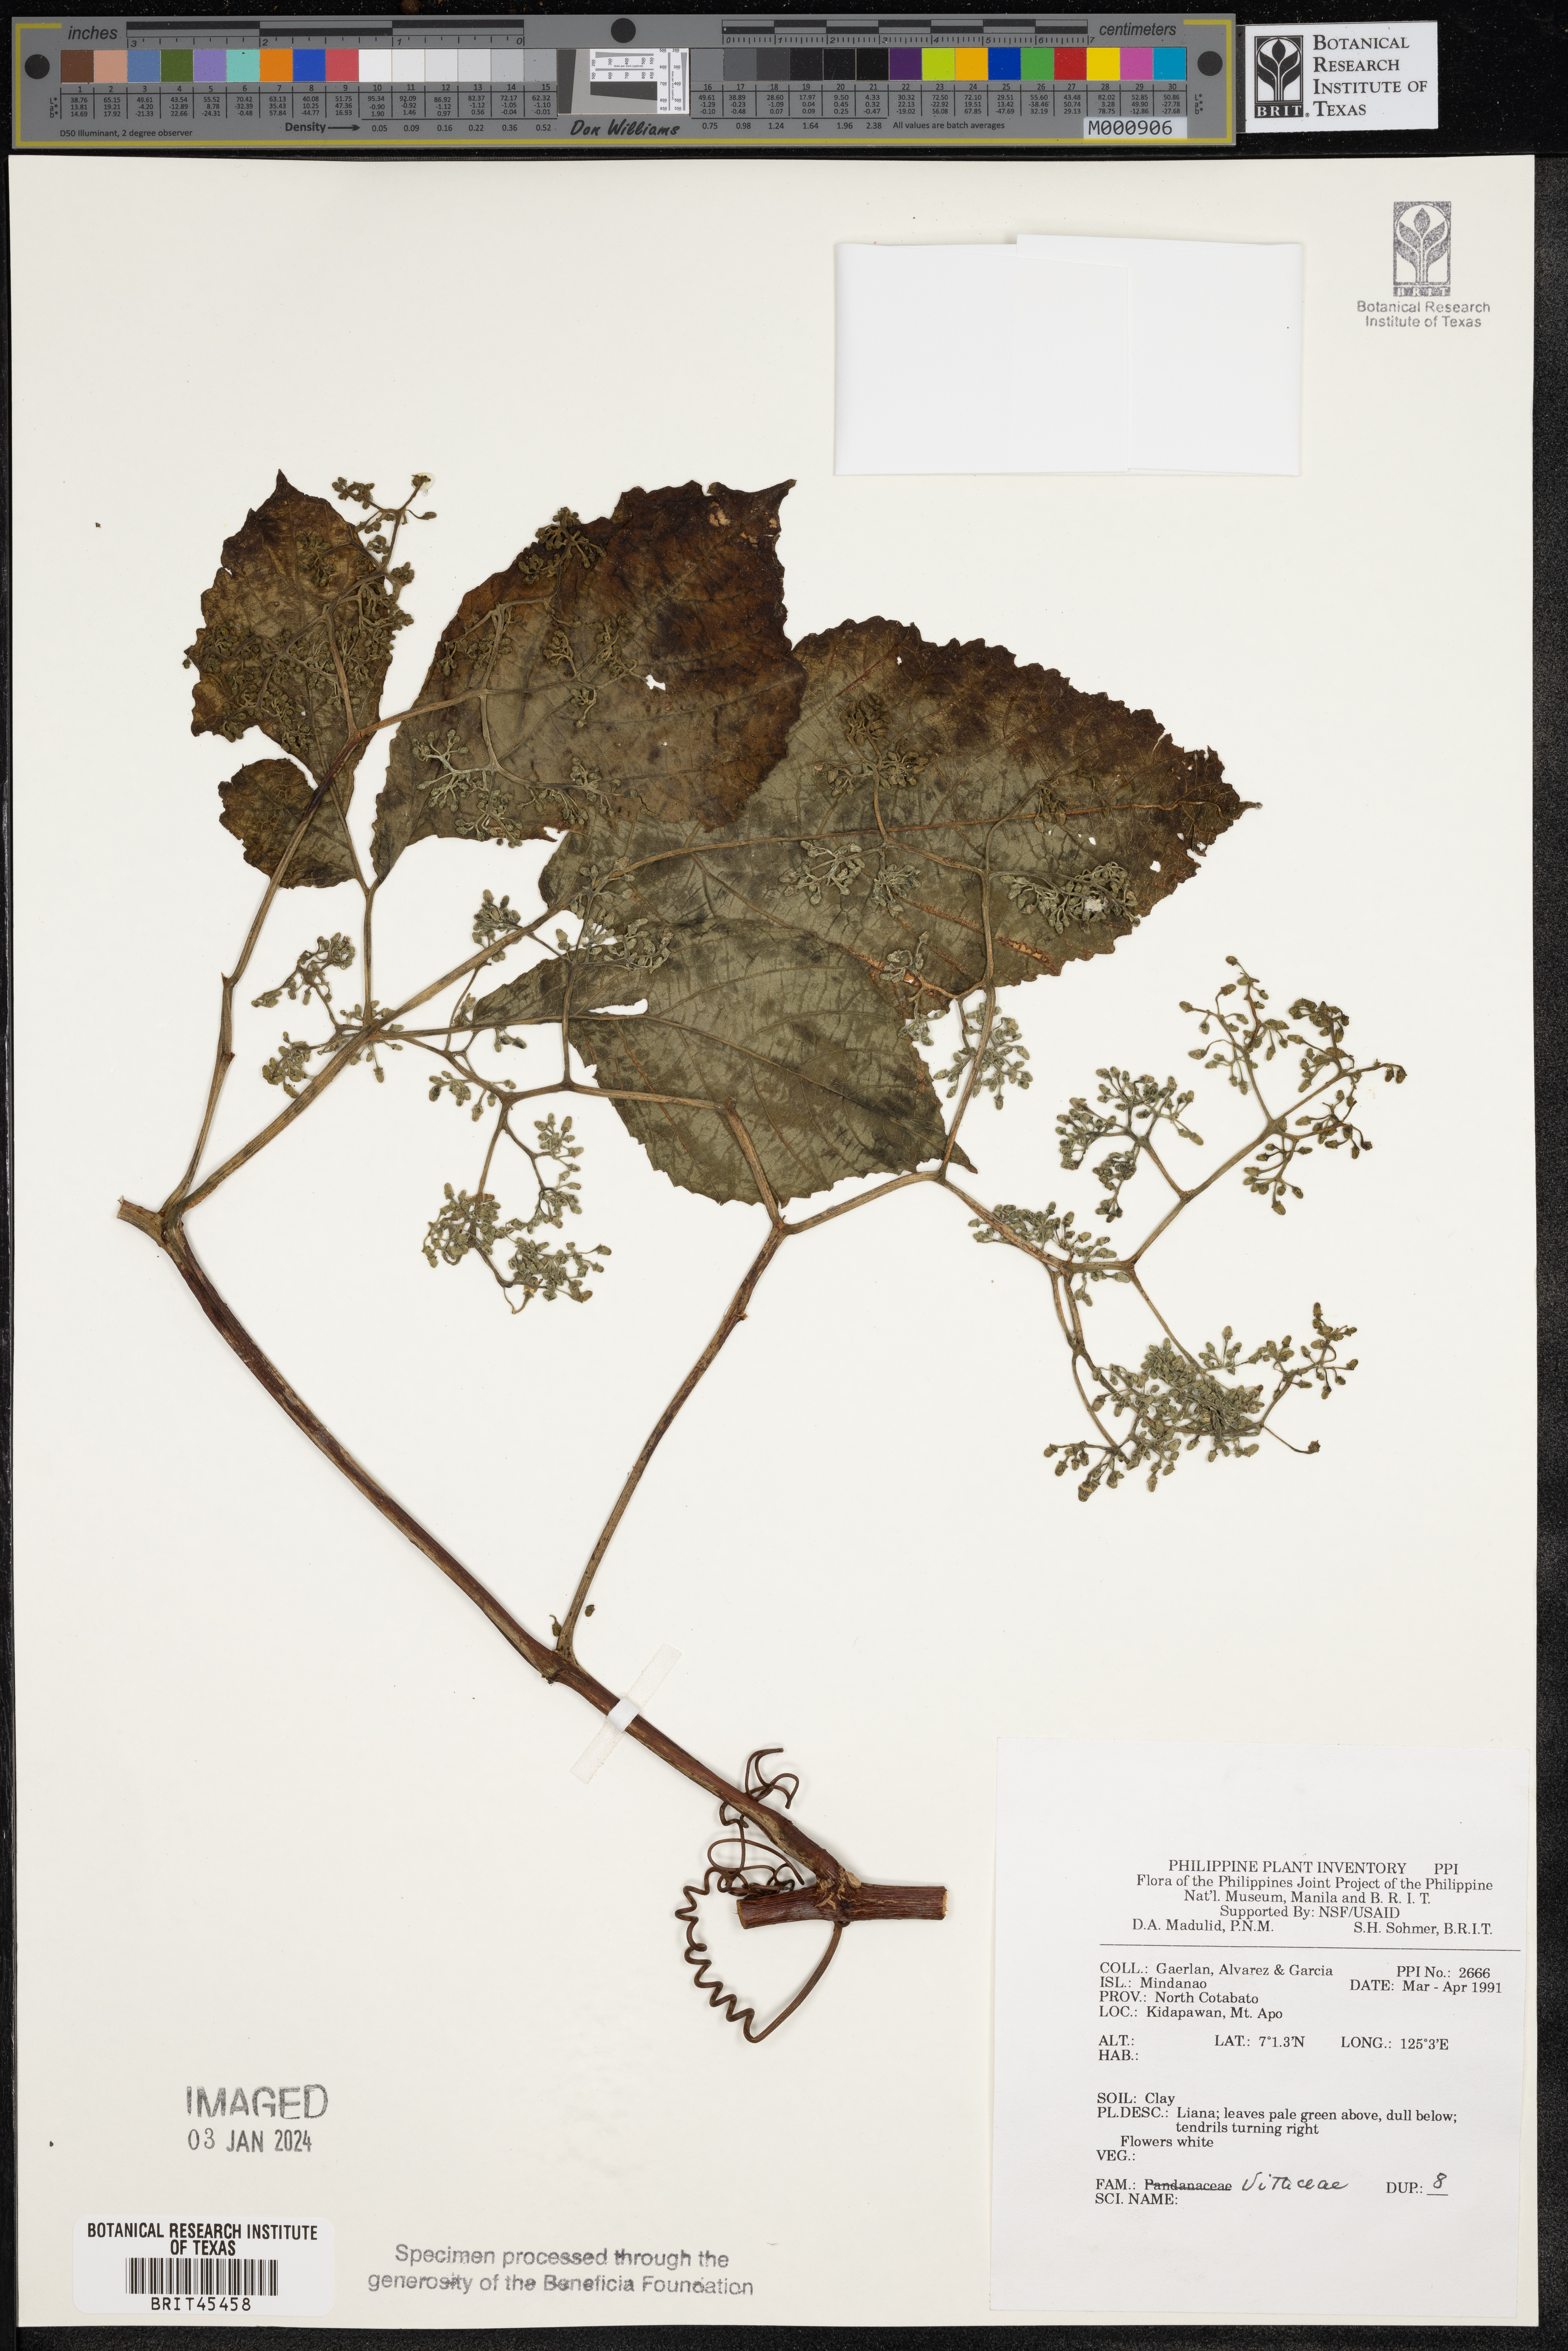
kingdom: Plantae
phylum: Tracheophyta
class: Magnoliopsida
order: Vitales
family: Vitaceae
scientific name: Vitaceae
